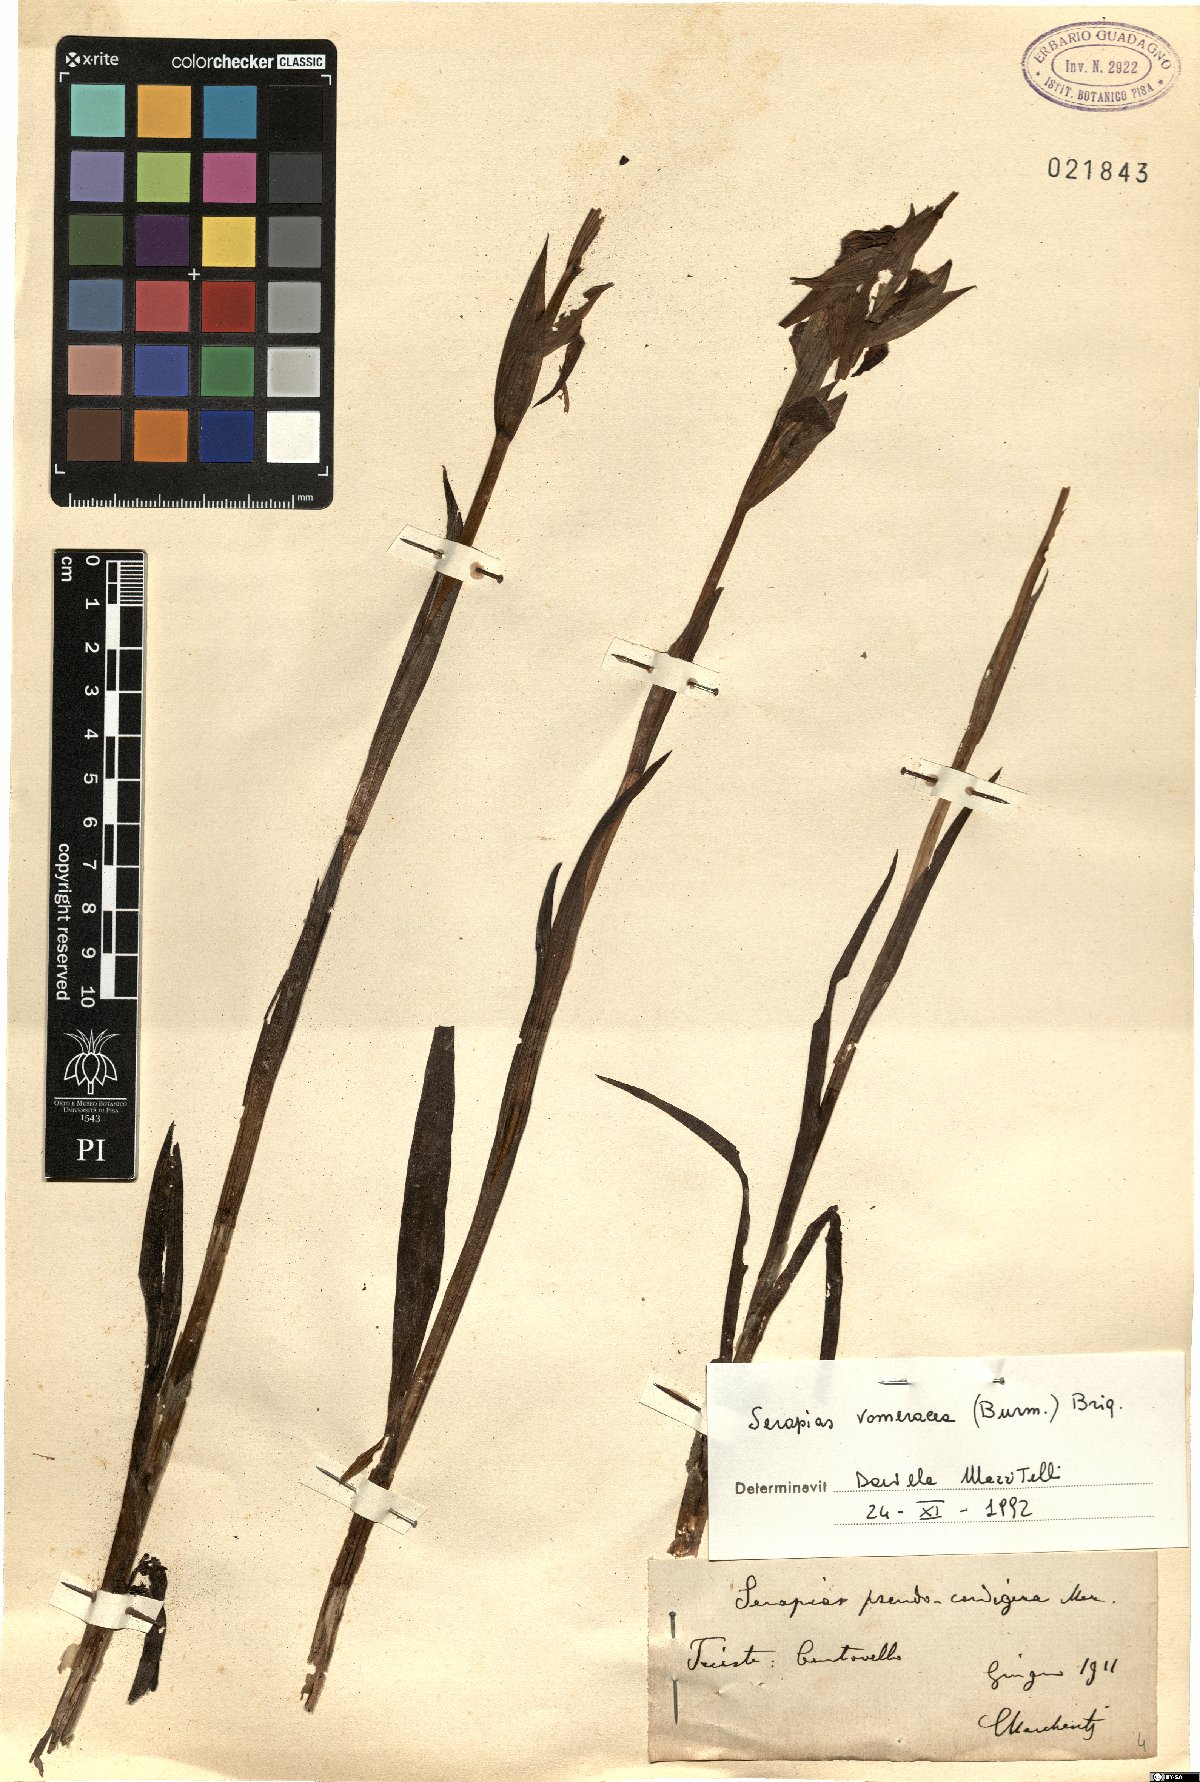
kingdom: Plantae
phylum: Tracheophyta
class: Liliopsida
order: Asparagales
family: Orchidaceae
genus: Serapias
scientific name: Serapias vomeracea
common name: Long-lipped tongue-orchid
